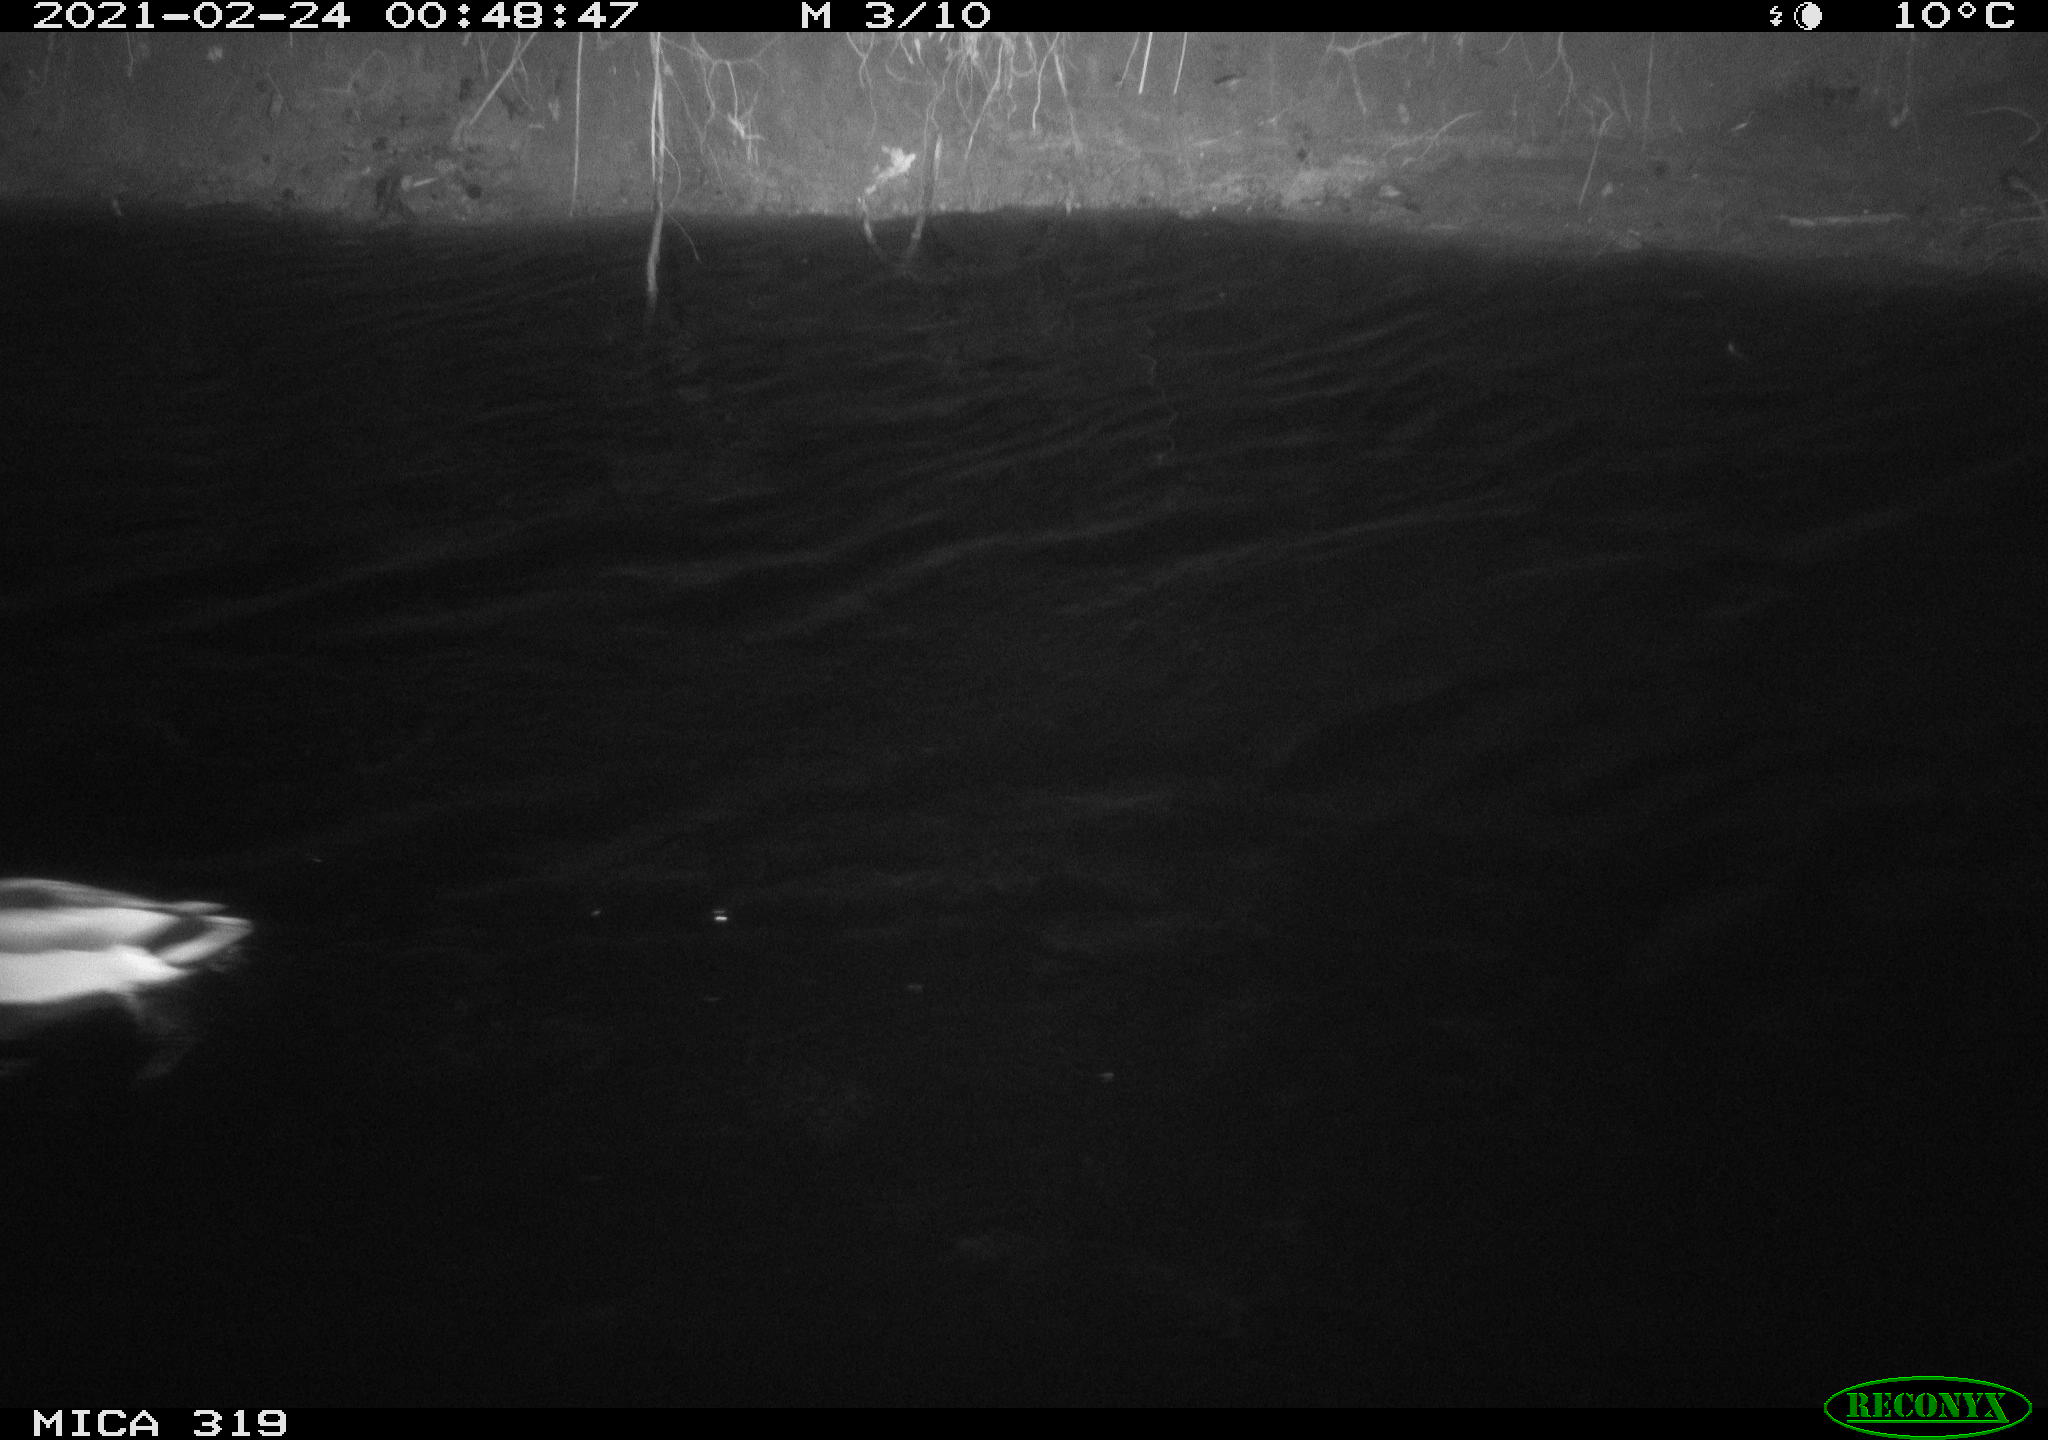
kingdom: Animalia
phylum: Chordata
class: Aves
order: Anseriformes
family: Anatidae
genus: Anas
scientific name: Anas platyrhynchos
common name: Mallard
